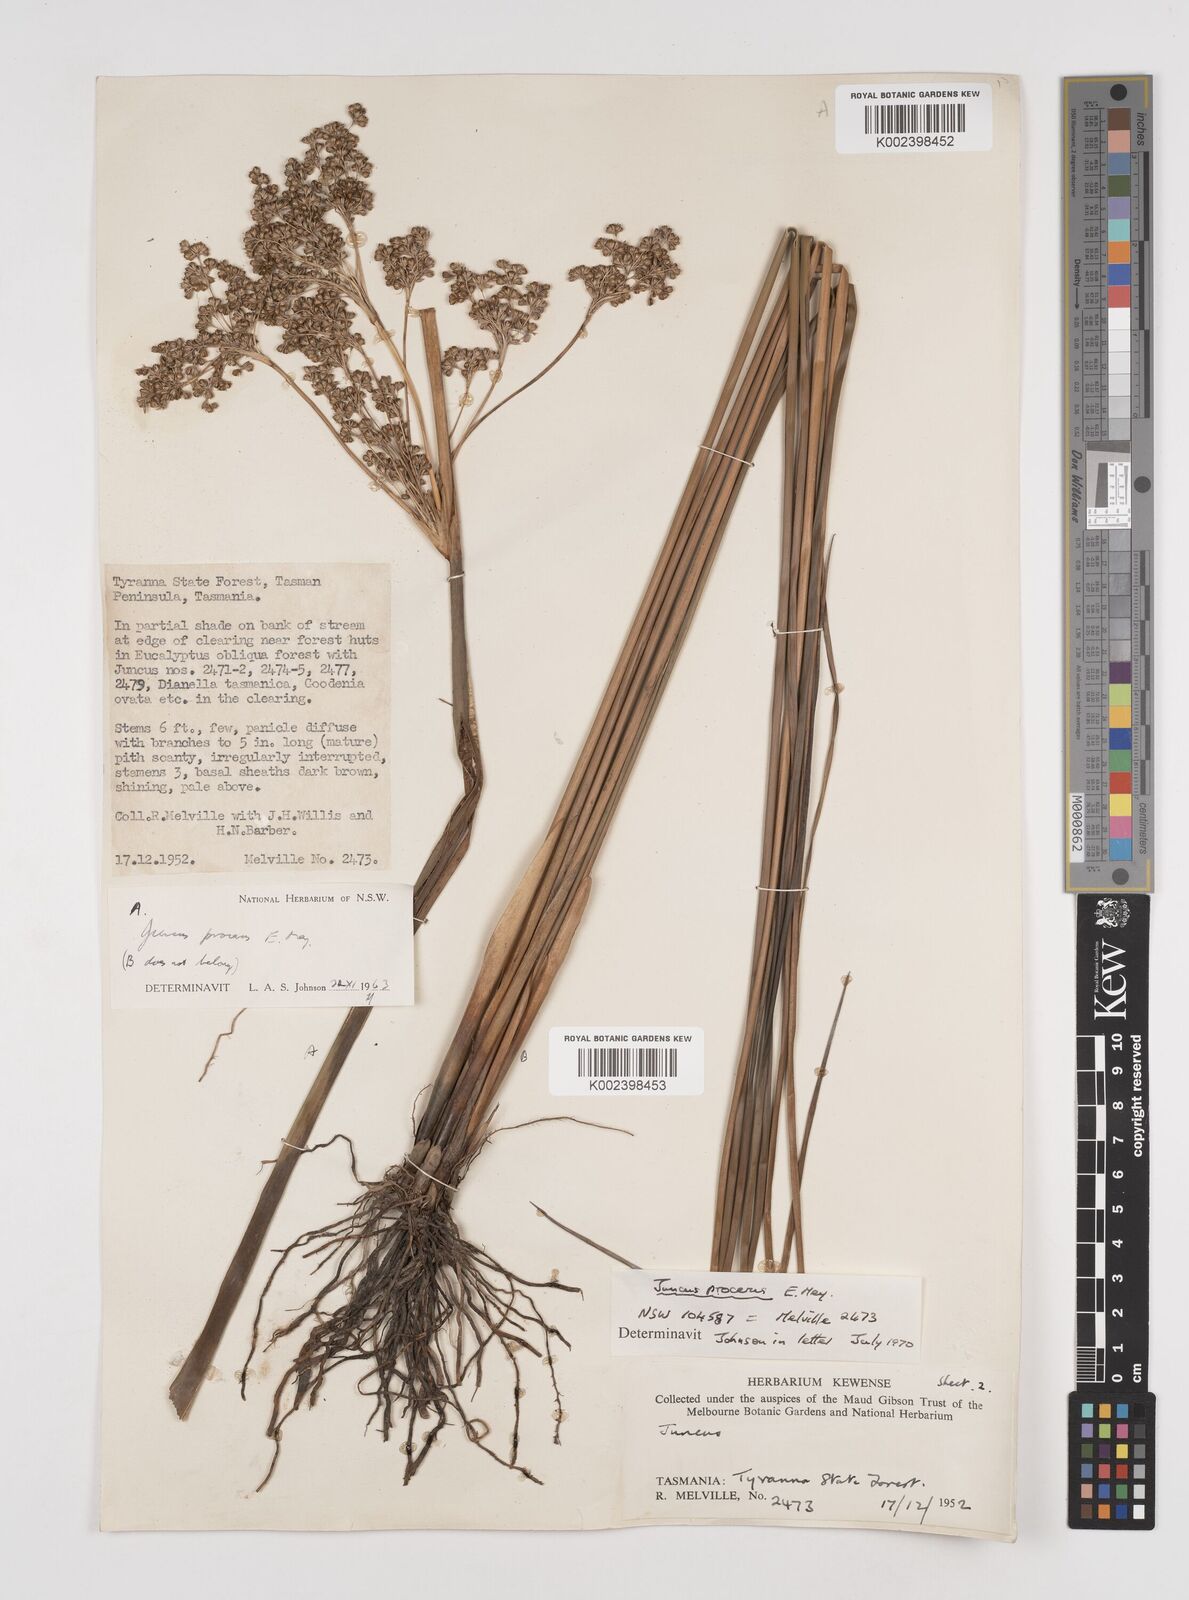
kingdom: Plantae
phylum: Tracheophyta
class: Liliopsida
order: Poales
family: Juncaceae
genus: Juncus
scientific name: Juncus procerus
